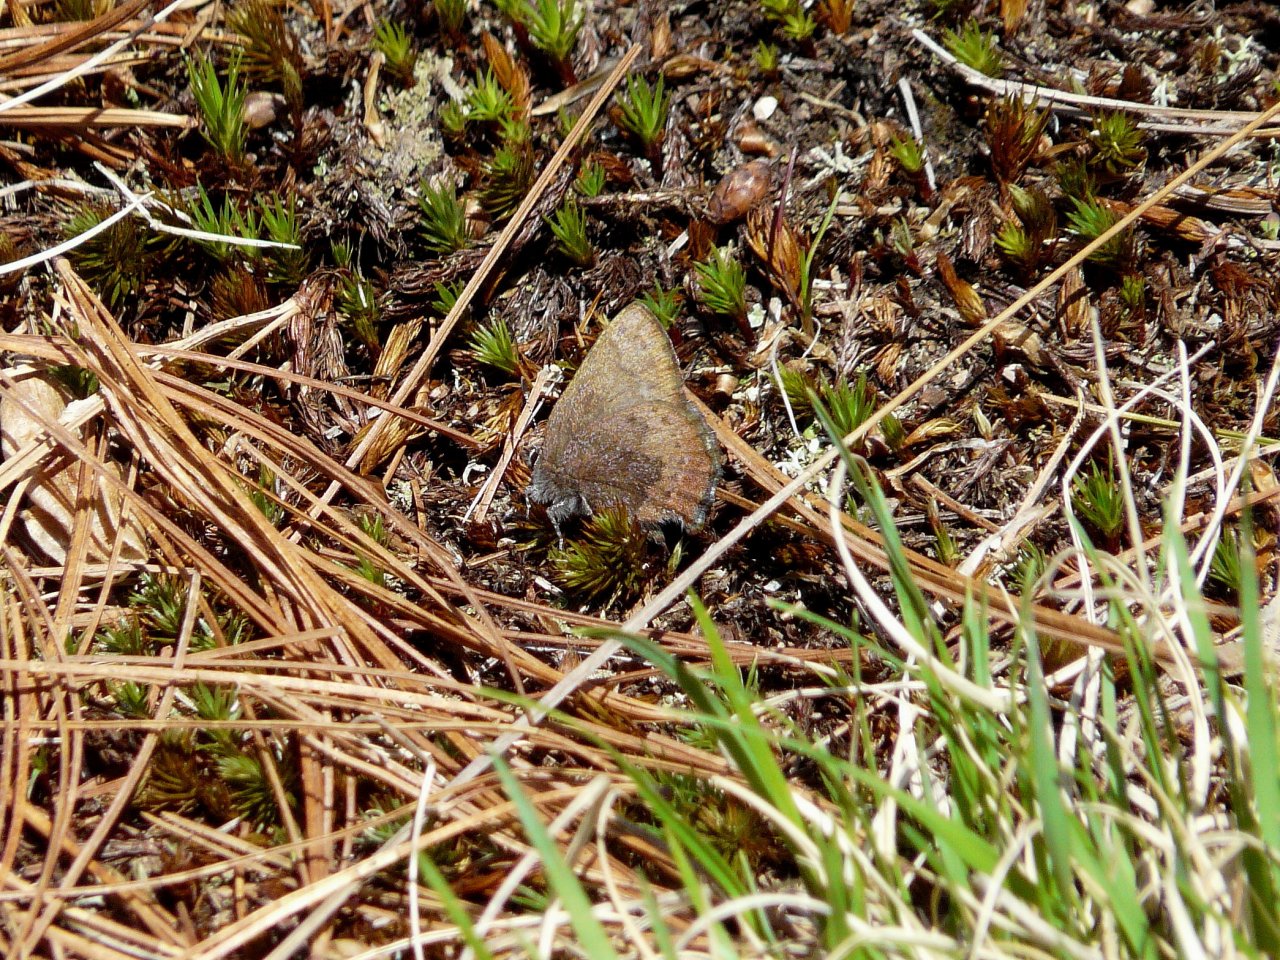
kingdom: Animalia
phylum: Arthropoda
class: Insecta
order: Lepidoptera
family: Lycaenidae
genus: Incisalia
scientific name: Incisalia irioides
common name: Brown Elfin
